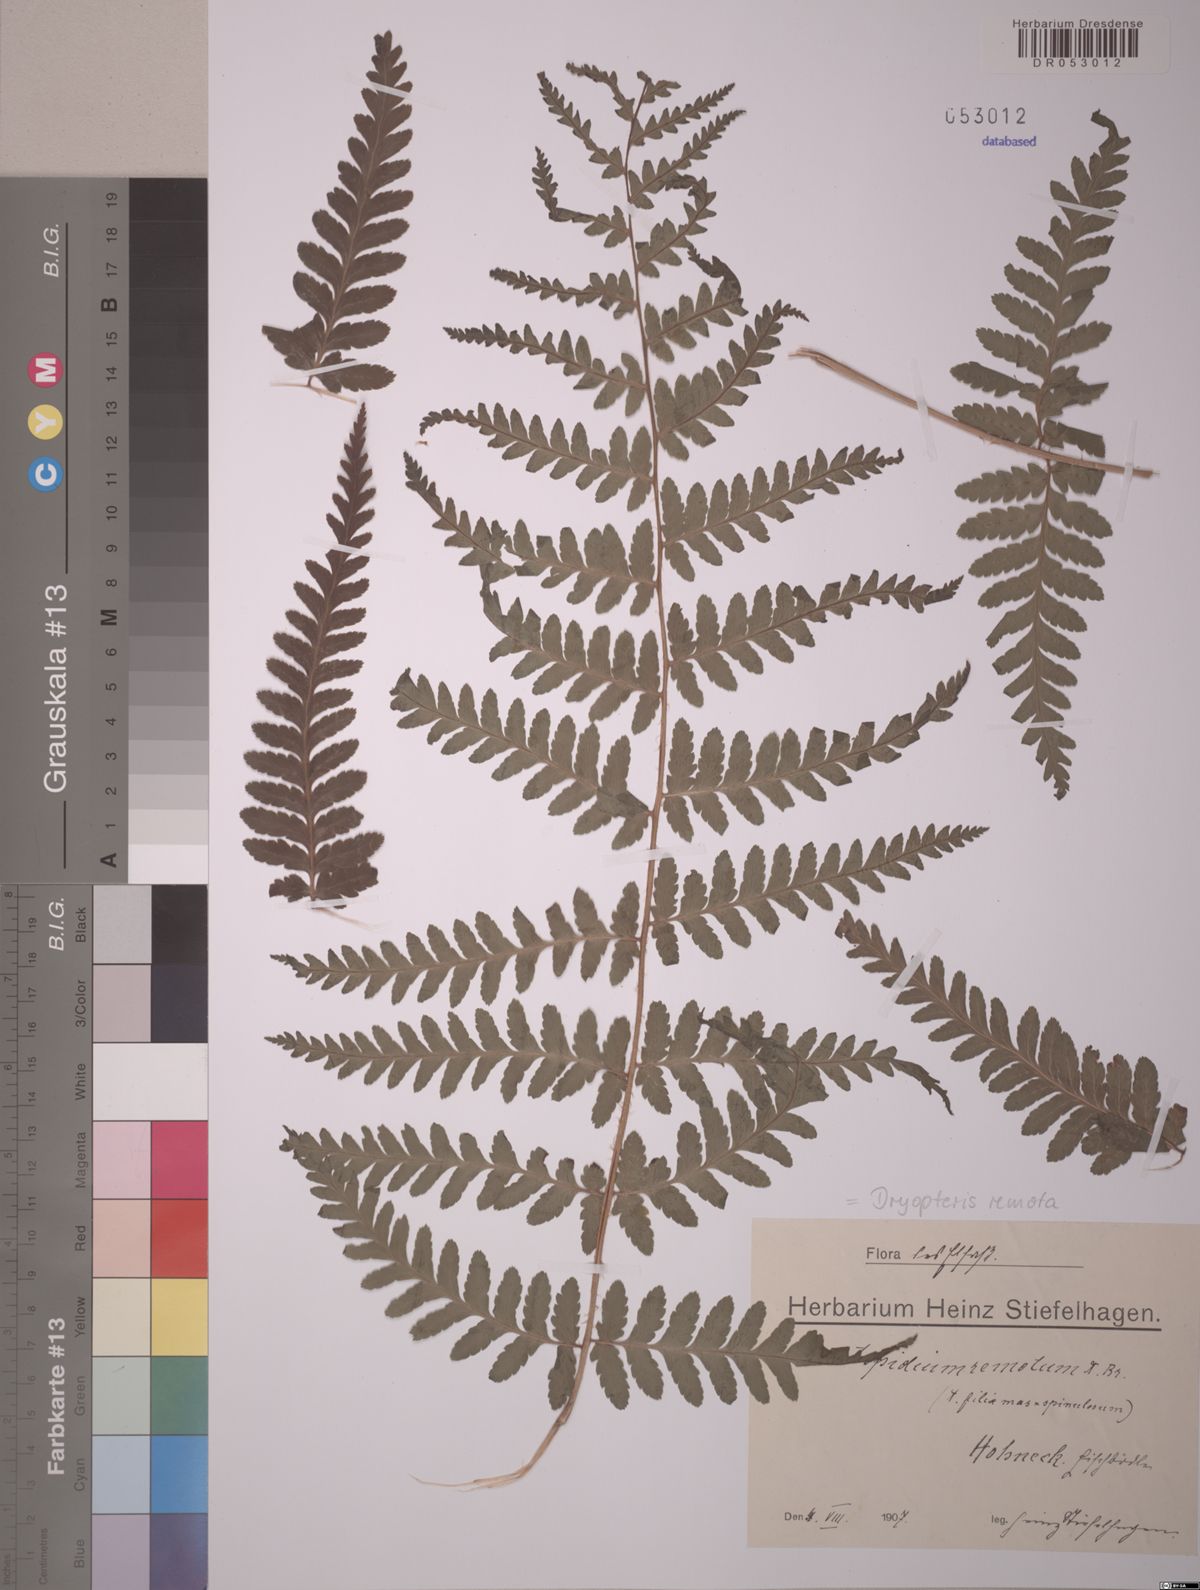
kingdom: Plantae
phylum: Tracheophyta
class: Polypodiopsida
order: Polypodiales
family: Dryopteridaceae
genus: Dryopteris
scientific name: Dryopteris remota
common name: Scaly buckler-fern
